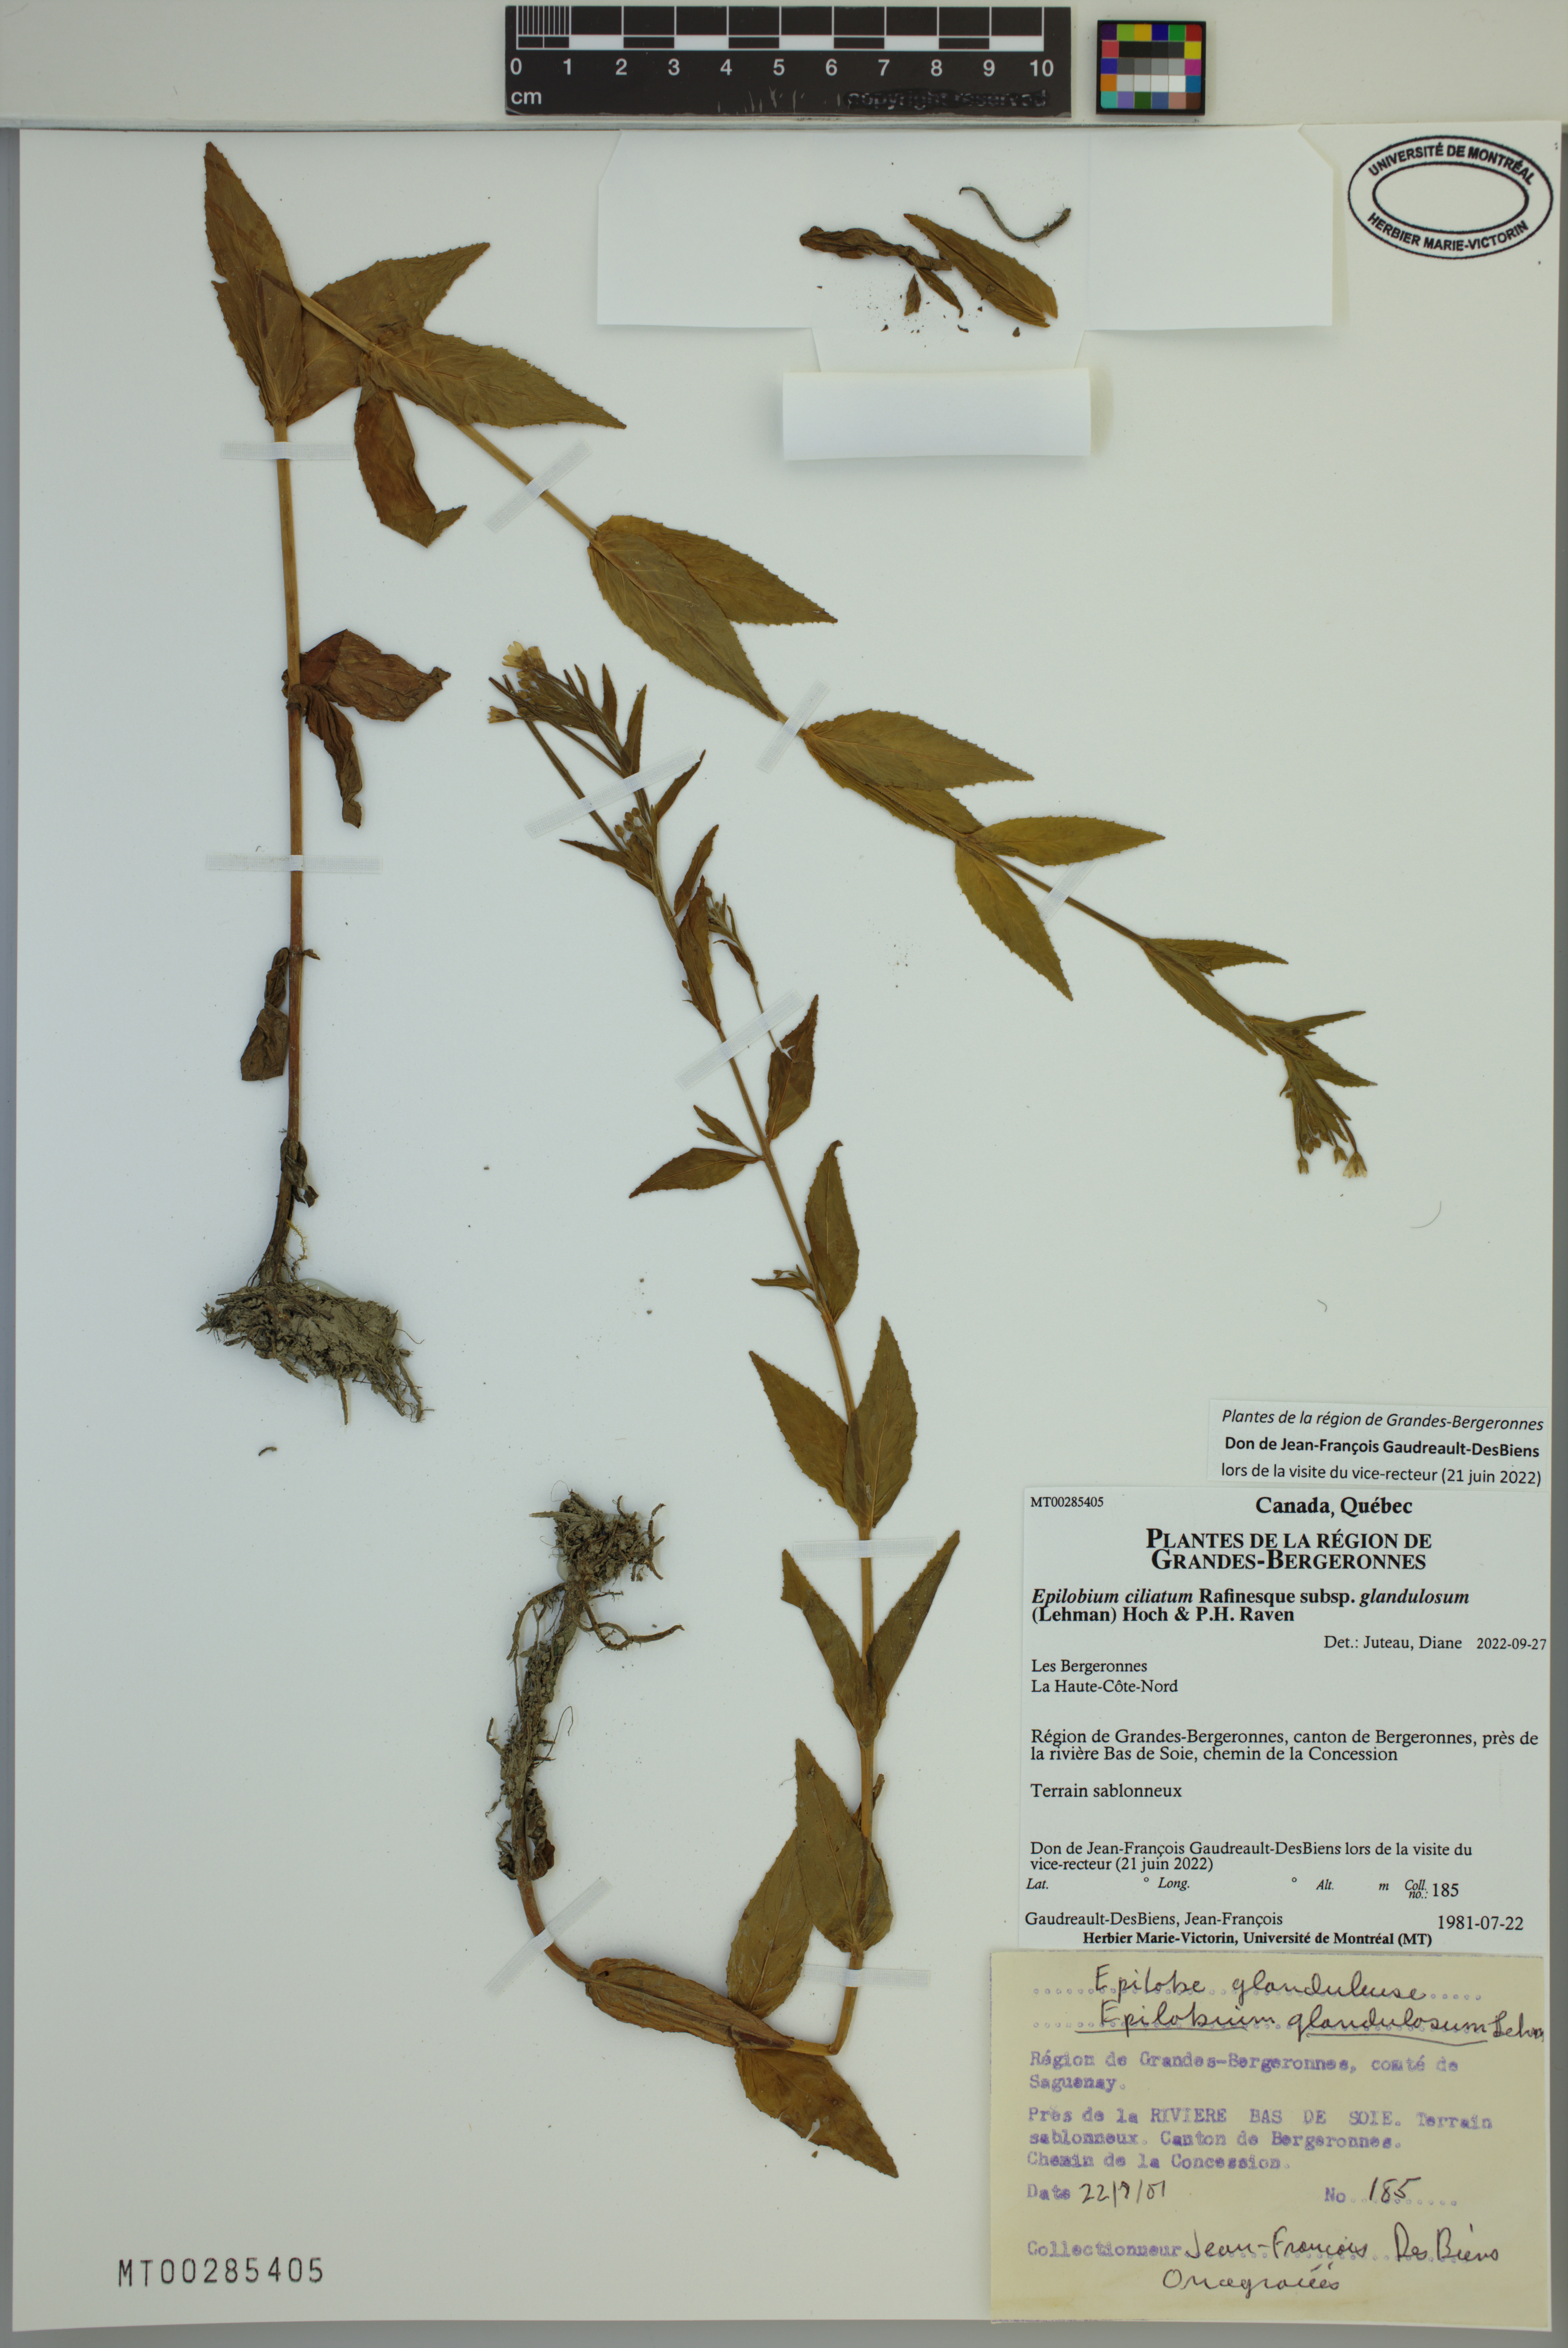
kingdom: Plantae
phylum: Tracheophyta
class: Magnoliopsida
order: Myrtales
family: Onagraceae
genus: Epilobium
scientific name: Epilobium ciliatum
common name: American willowherb
